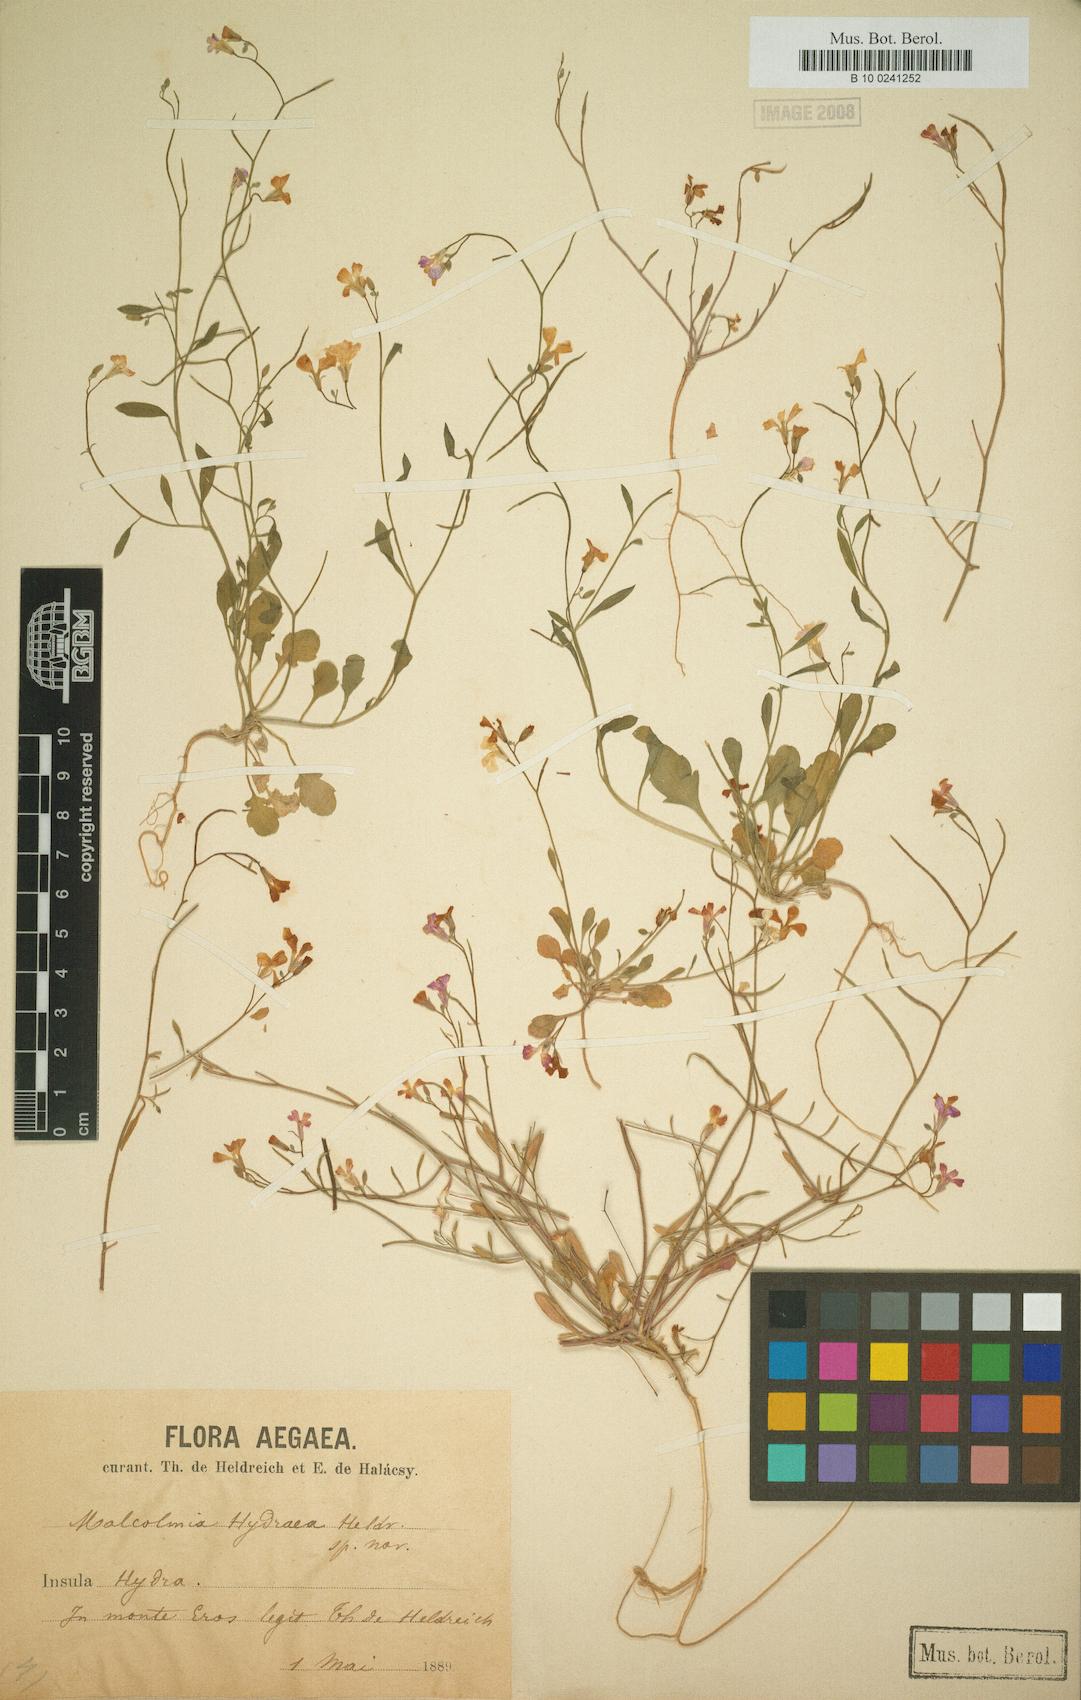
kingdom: Plantae
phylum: Tracheophyta
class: Magnoliopsida
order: Brassicales
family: Brassicaceae
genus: Malcolmia
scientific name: Malcolmia graeca
